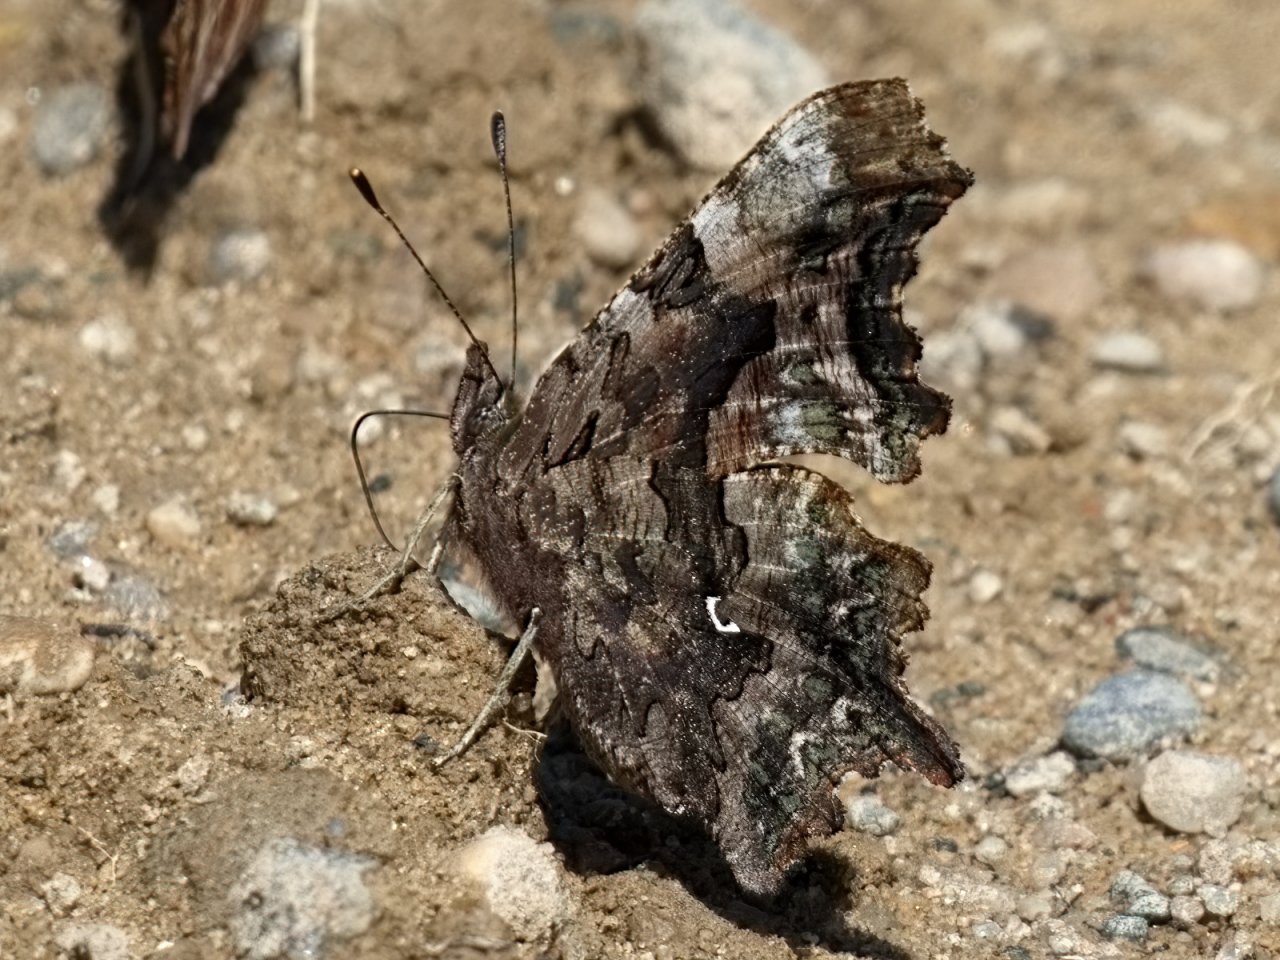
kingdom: Animalia
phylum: Arthropoda
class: Insecta
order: Lepidoptera
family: Nymphalidae
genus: Polygonia
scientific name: Polygonia faunus
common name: Green Comma
